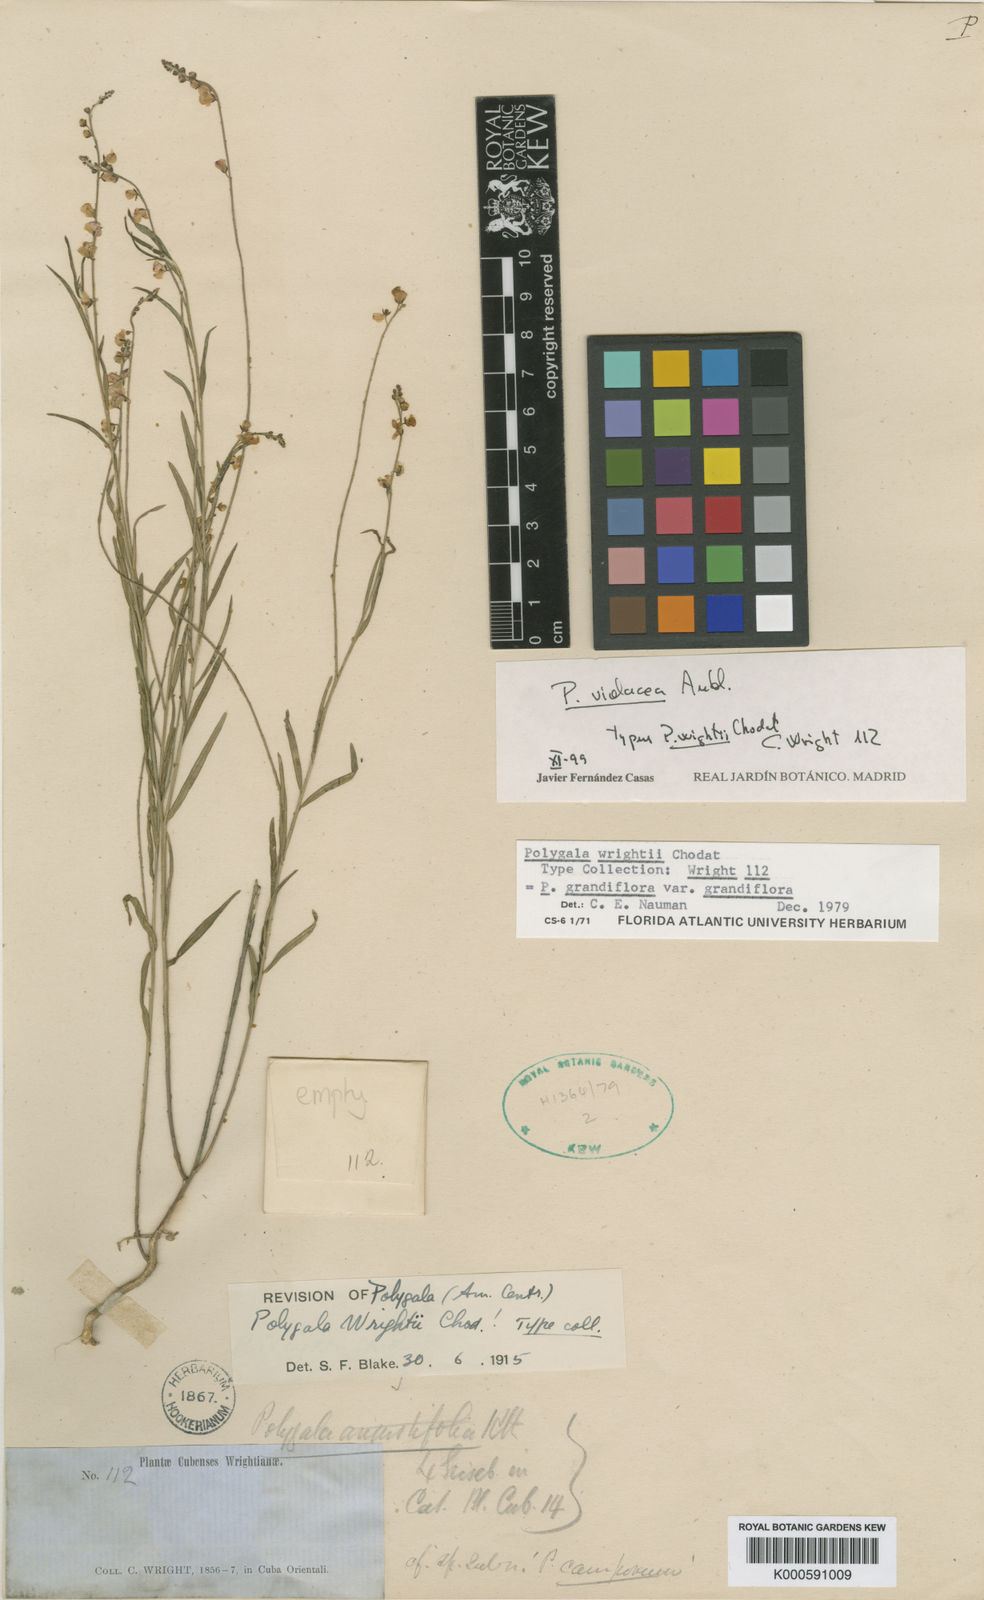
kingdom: Plantae
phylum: Tracheophyta
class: Magnoliopsida
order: Fabales
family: Polygalaceae
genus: Asemeia
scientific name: Asemeia violacea
